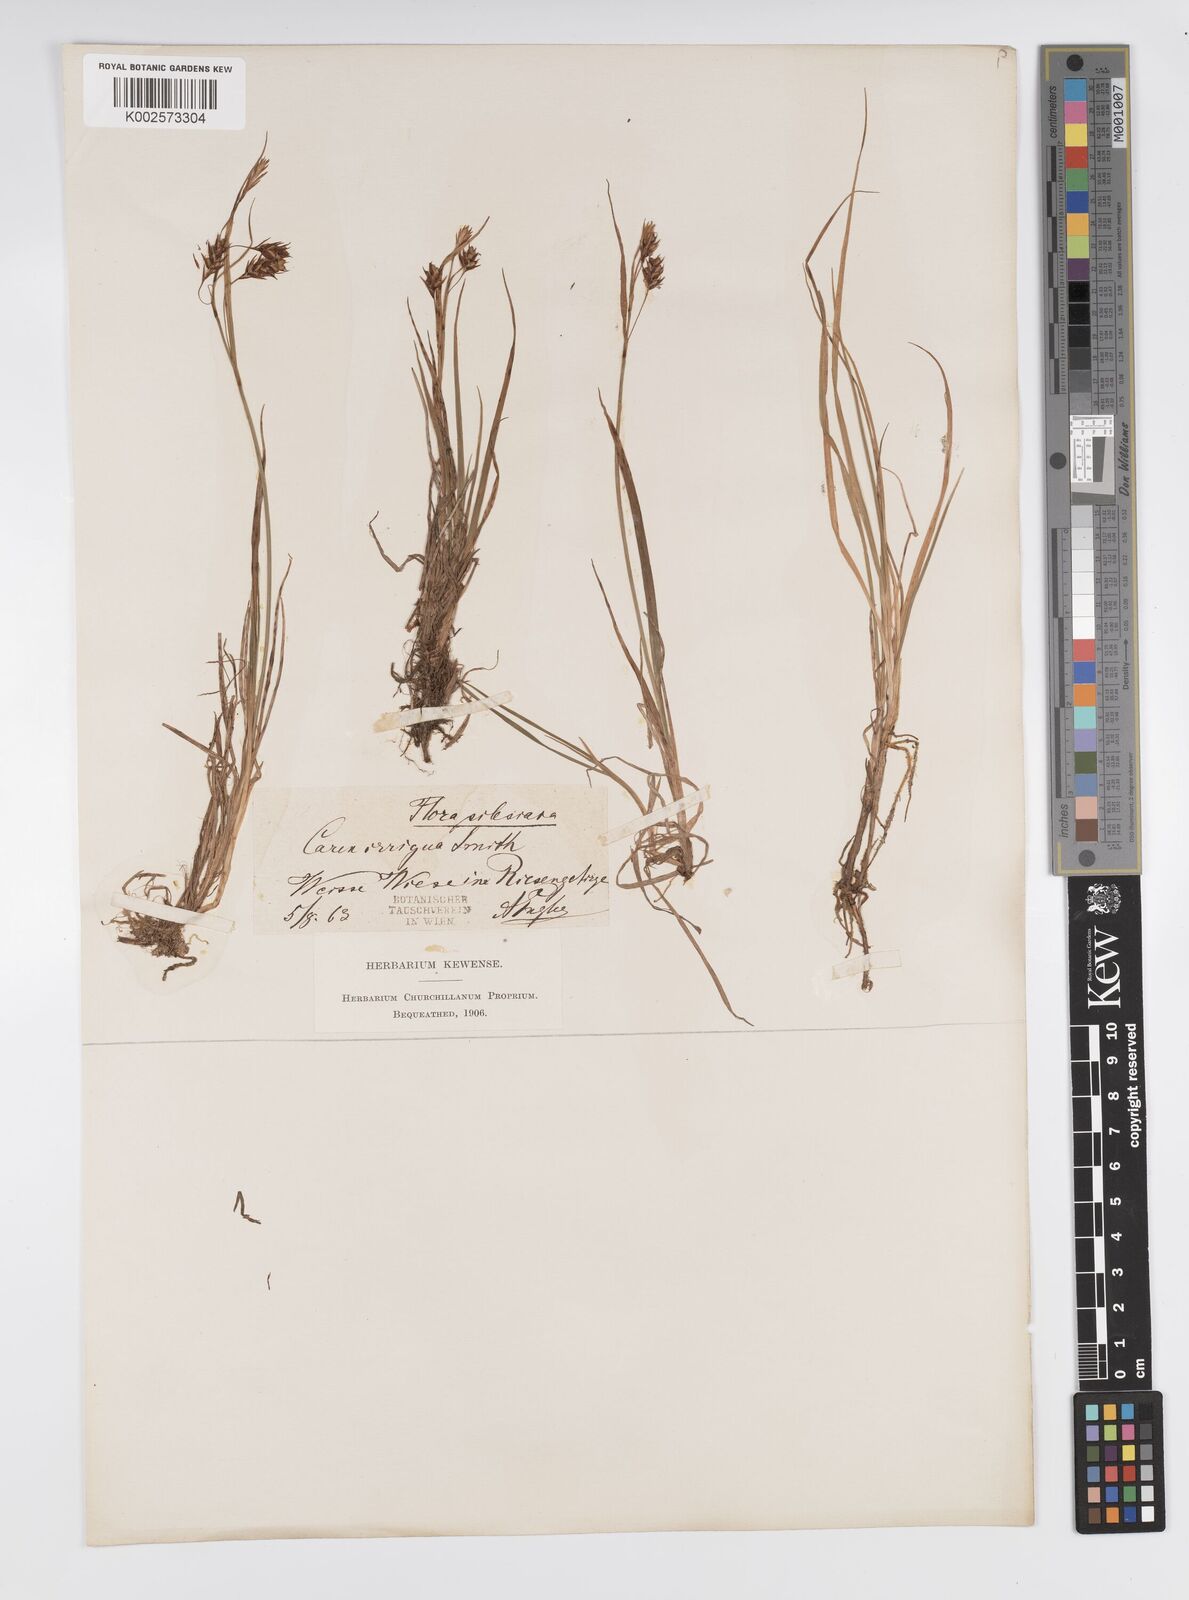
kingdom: Plantae
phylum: Tracheophyta
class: Liliopsida
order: Poales
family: Cyperaceae
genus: Carex
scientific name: Carex magellanica
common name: Bog sedge
